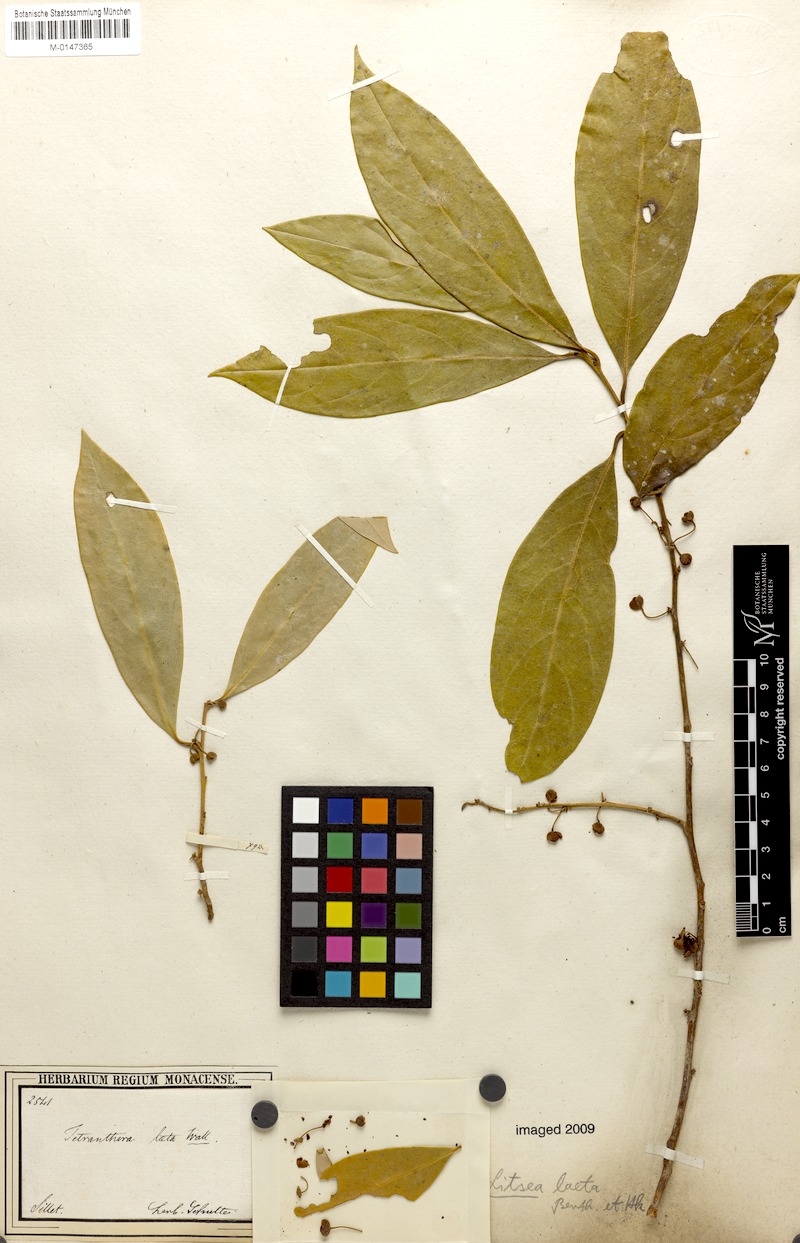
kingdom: Plantae
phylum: Tracheophyta
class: Magnoliopsida
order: Laurales
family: Lauraceae
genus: Litsea
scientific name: Litsea laeta
